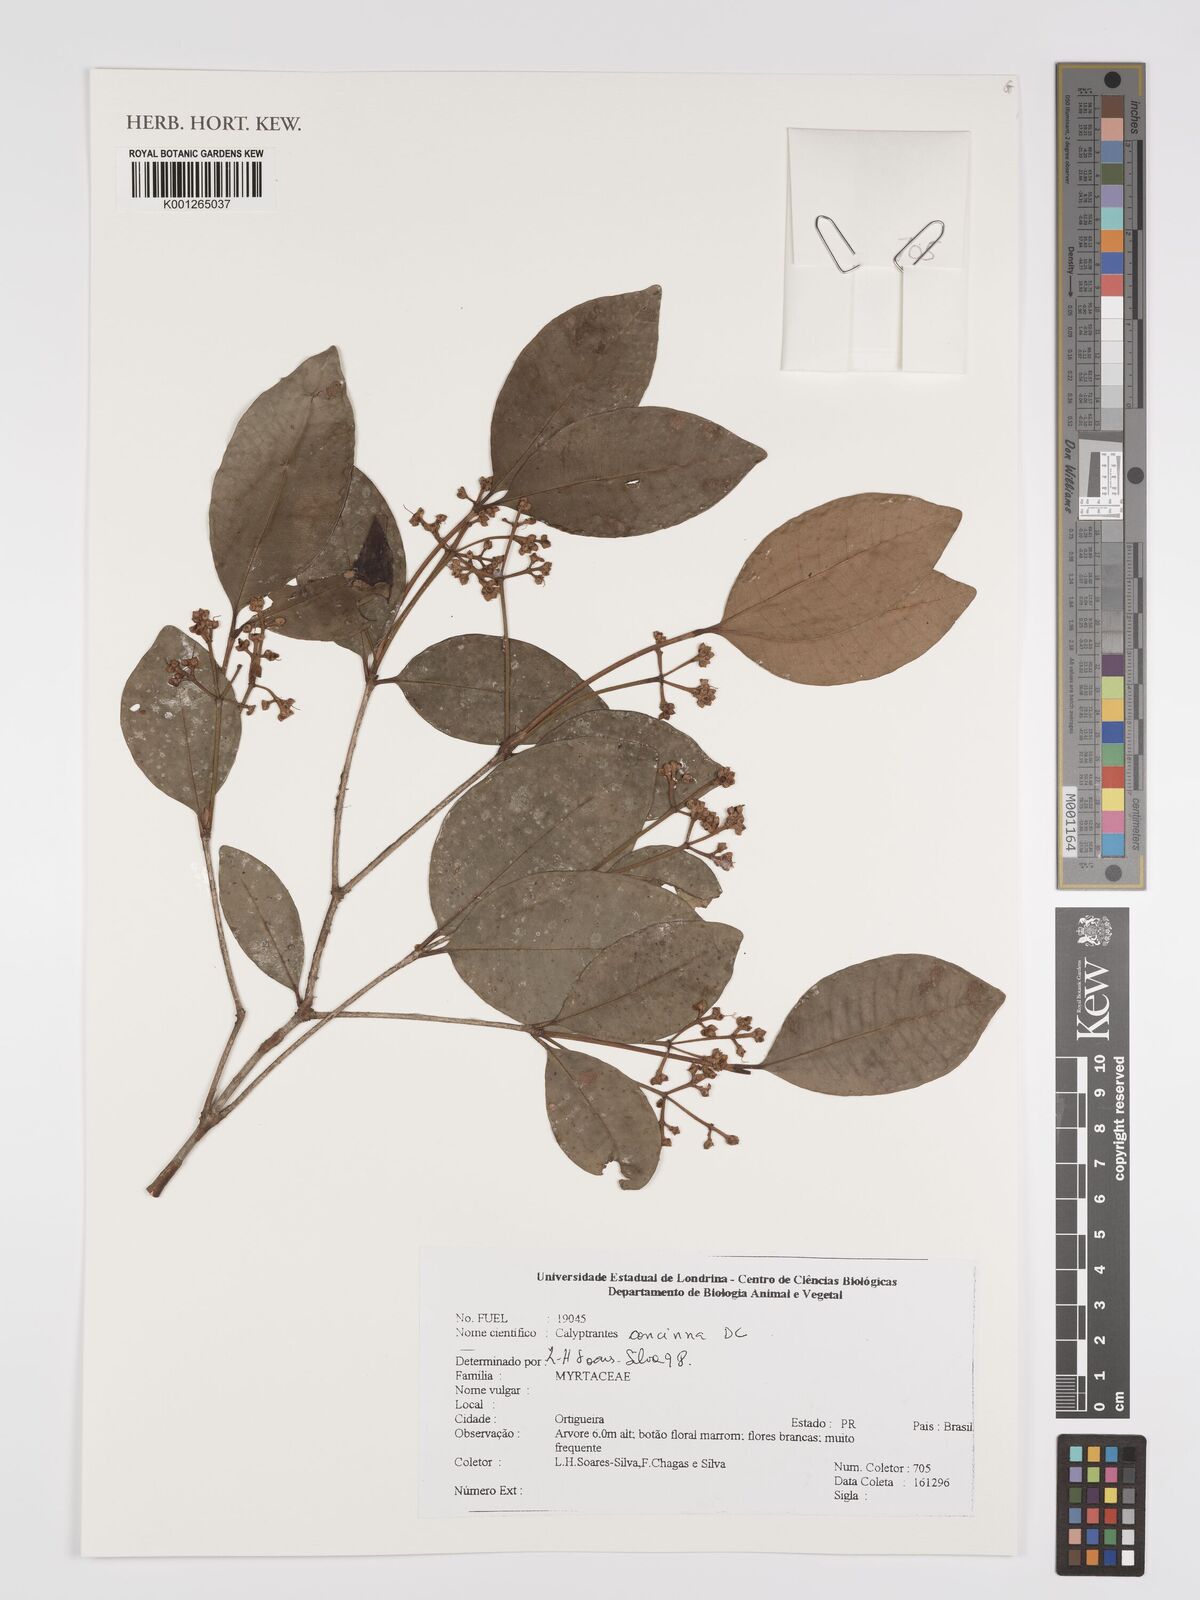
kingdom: Plantae
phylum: Tracheophyta
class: Magnoliopsida
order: Myrtales
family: Myrtaceae
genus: Myrcia
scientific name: Myrcia cruciflora
